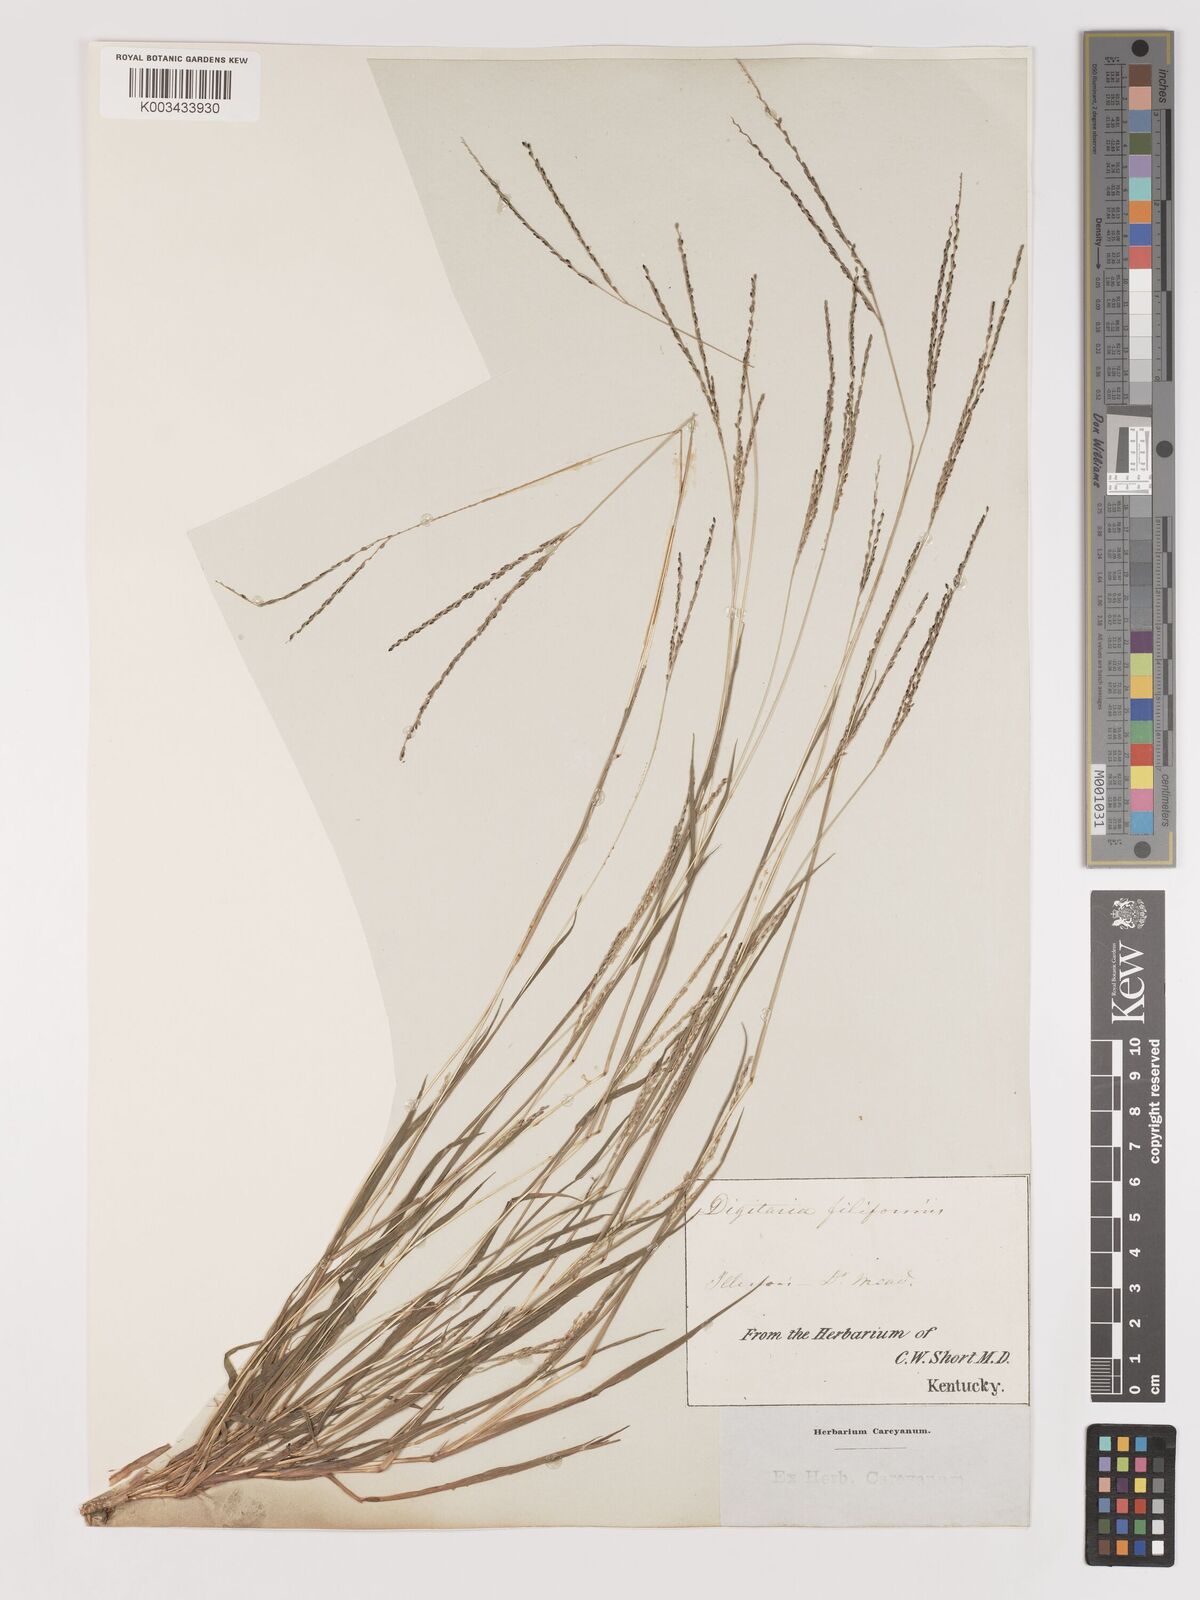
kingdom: Plantae
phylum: Tracheophyta
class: Liliopsida
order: Poales
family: Poaceae
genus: Digitaria
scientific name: Digitaria filiformis
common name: Slender crabgrass
